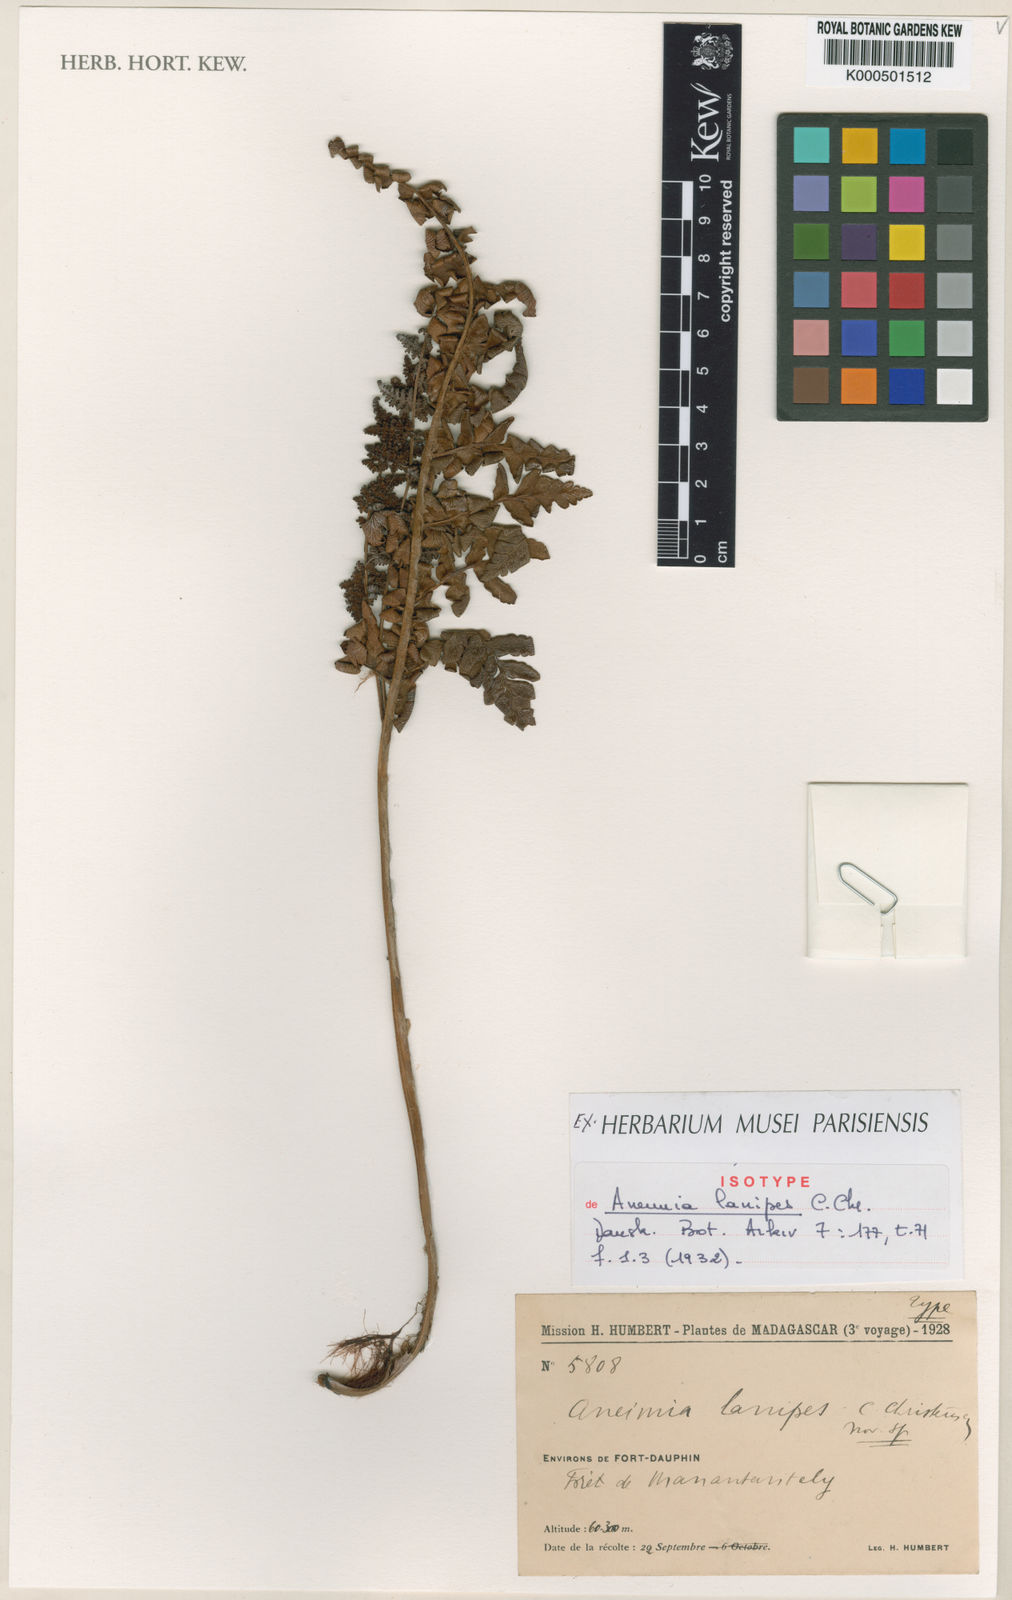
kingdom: Plantae
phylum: Tracheophyta
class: Polypodiopsida
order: Schizaeales
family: Anemiaceae
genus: Anemia
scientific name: Anemia lanipes
